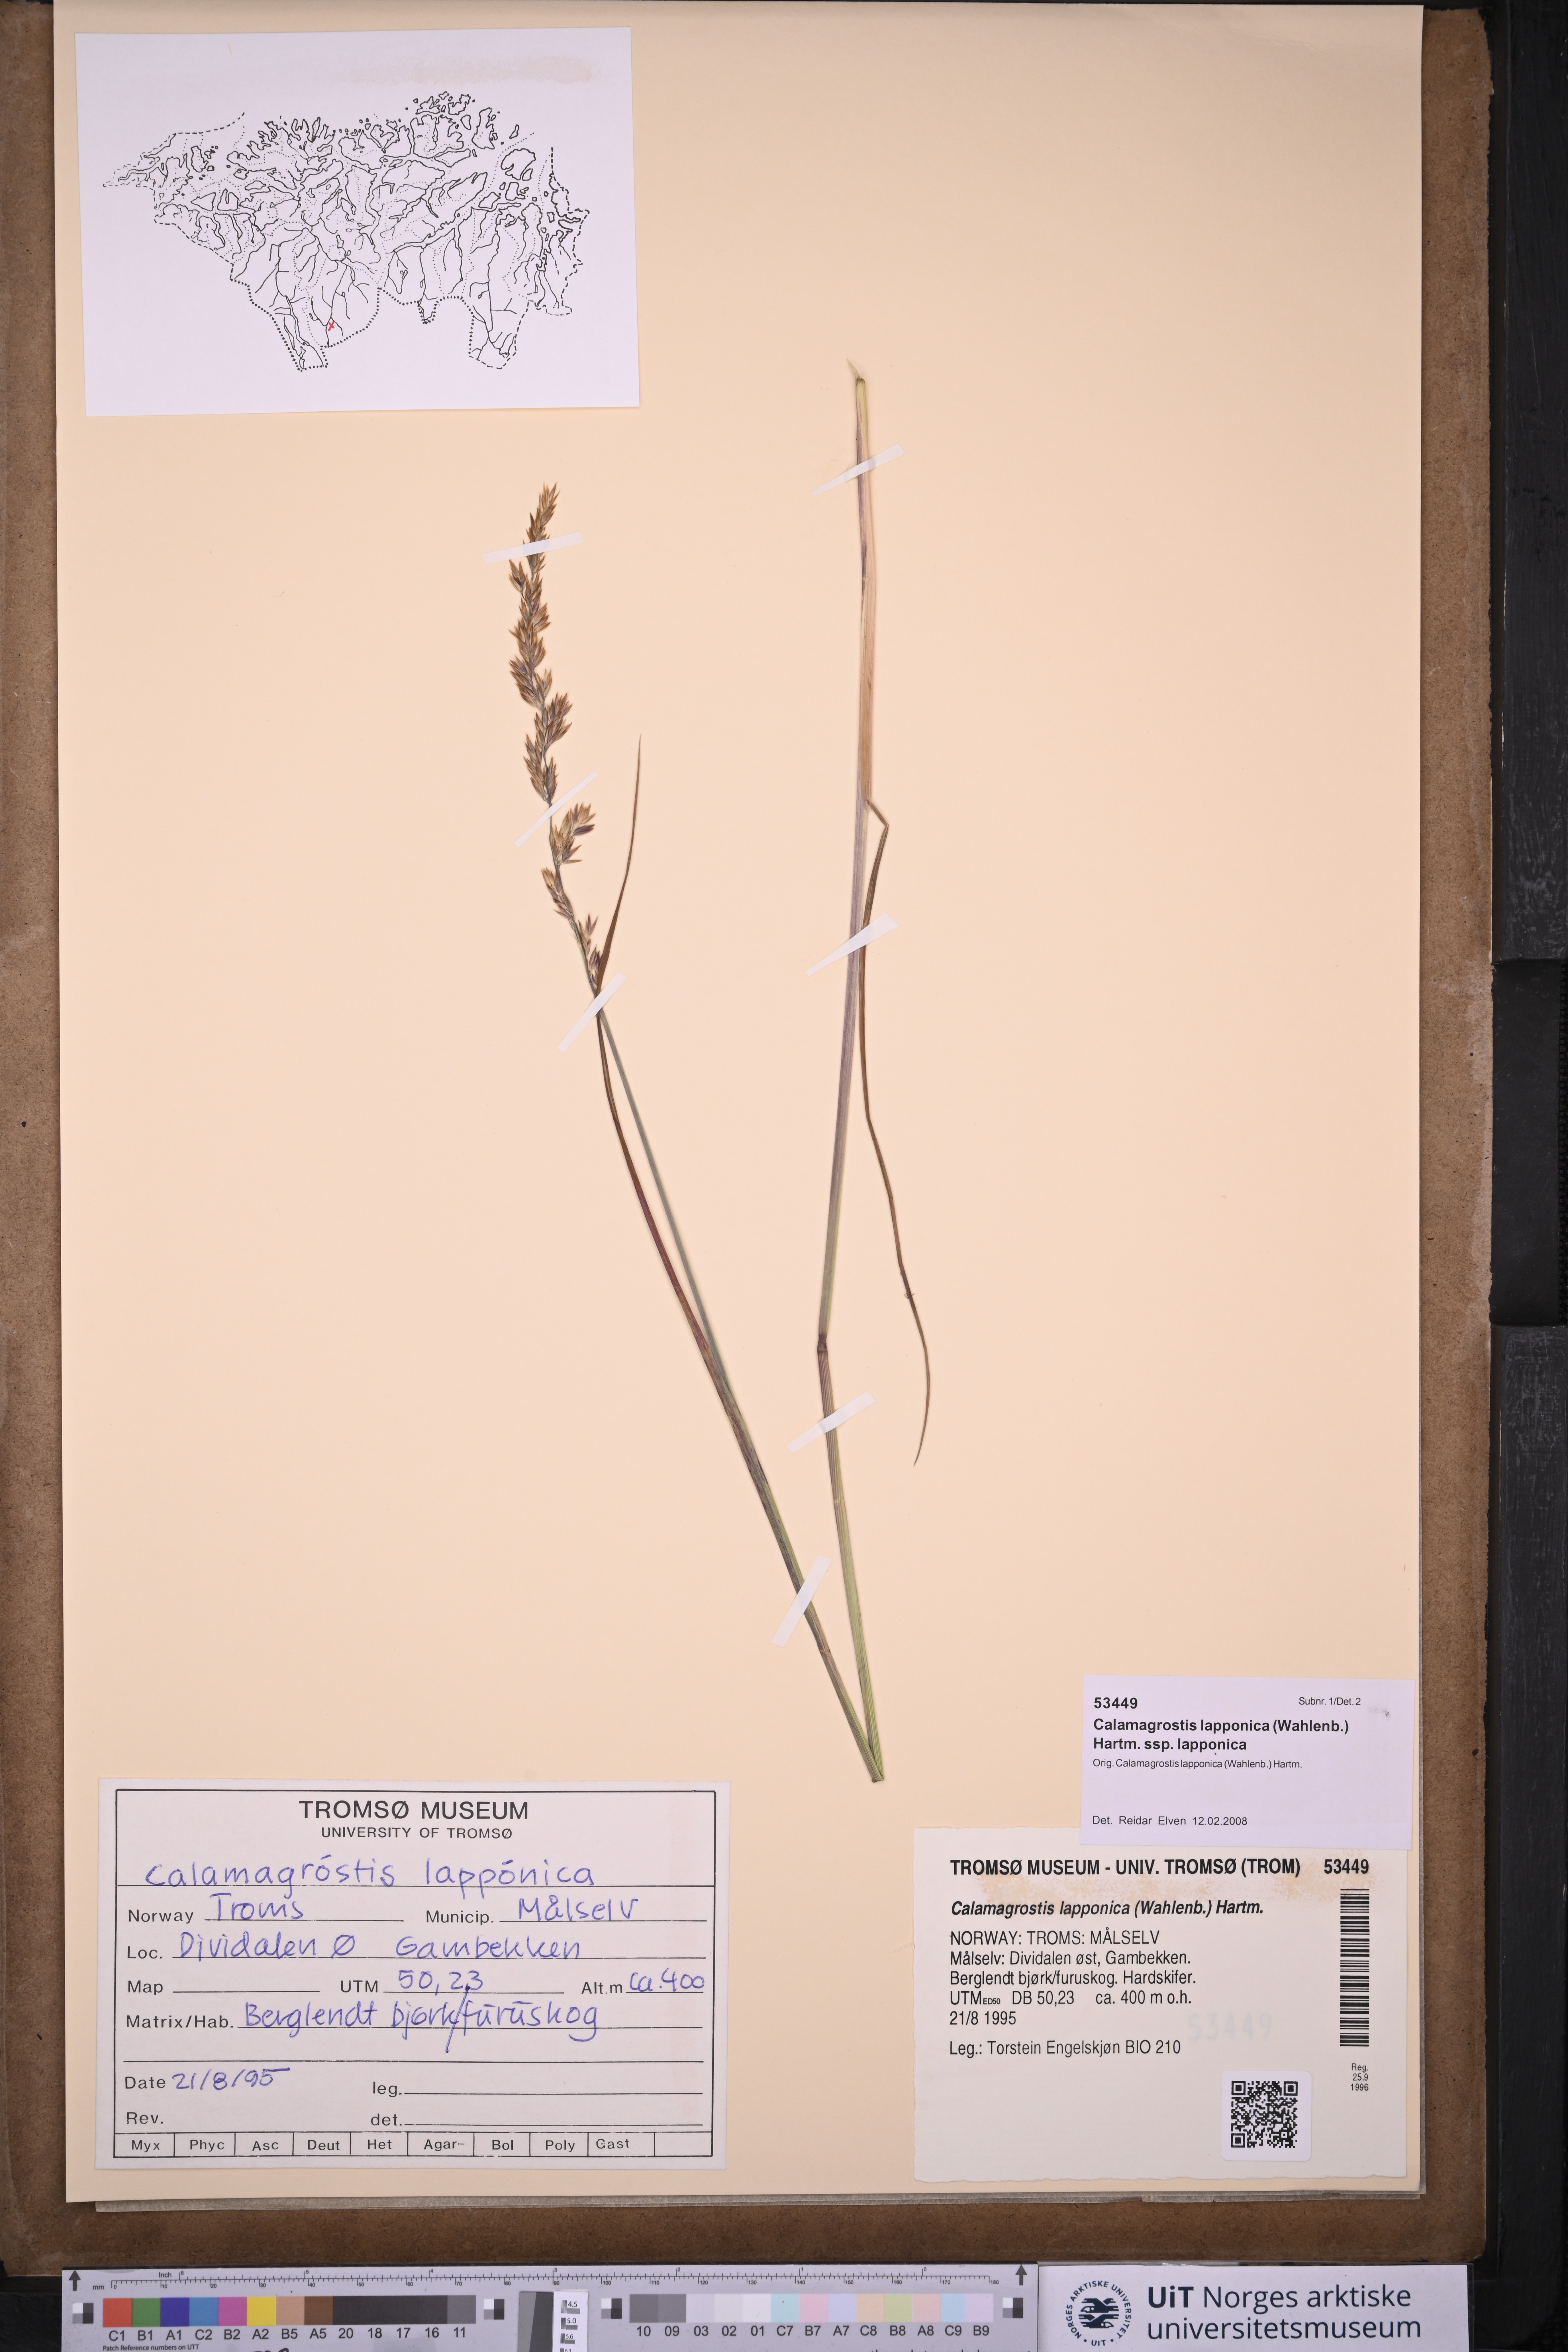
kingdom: Plantae
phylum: Tracheophyta
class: Liliopsida
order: Poales
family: Poaceae
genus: Calamagrostis
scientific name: Calamagrostis lapponica
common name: Lapland reedgrass
